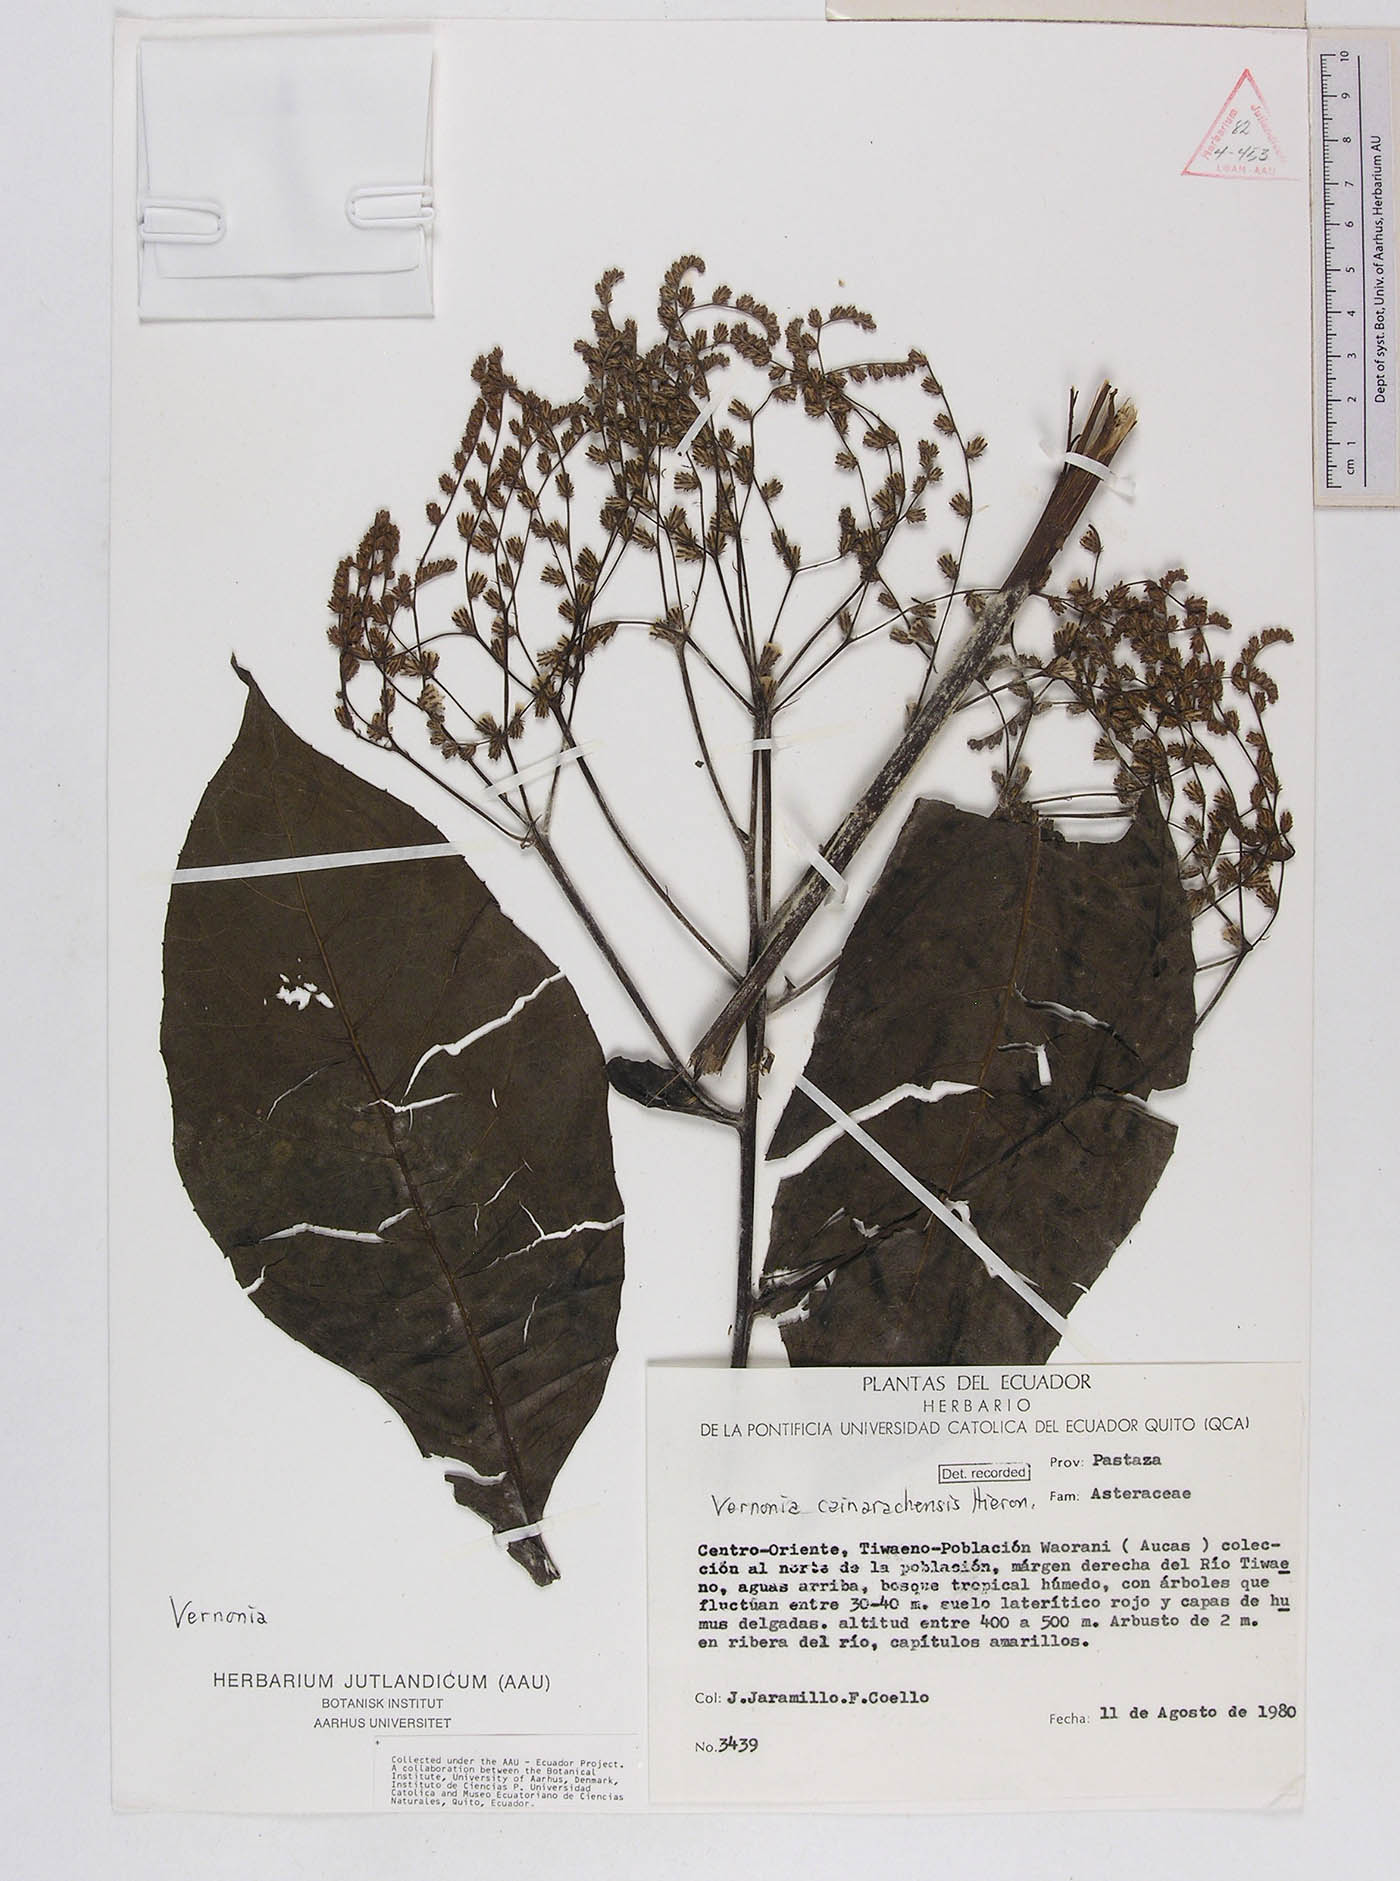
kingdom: Plantae
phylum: Tracheophyta
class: Magnoliopsida
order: Asterales
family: Asteraceae
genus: Eirmocephala
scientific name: Eirmocephala cainarachiensis
